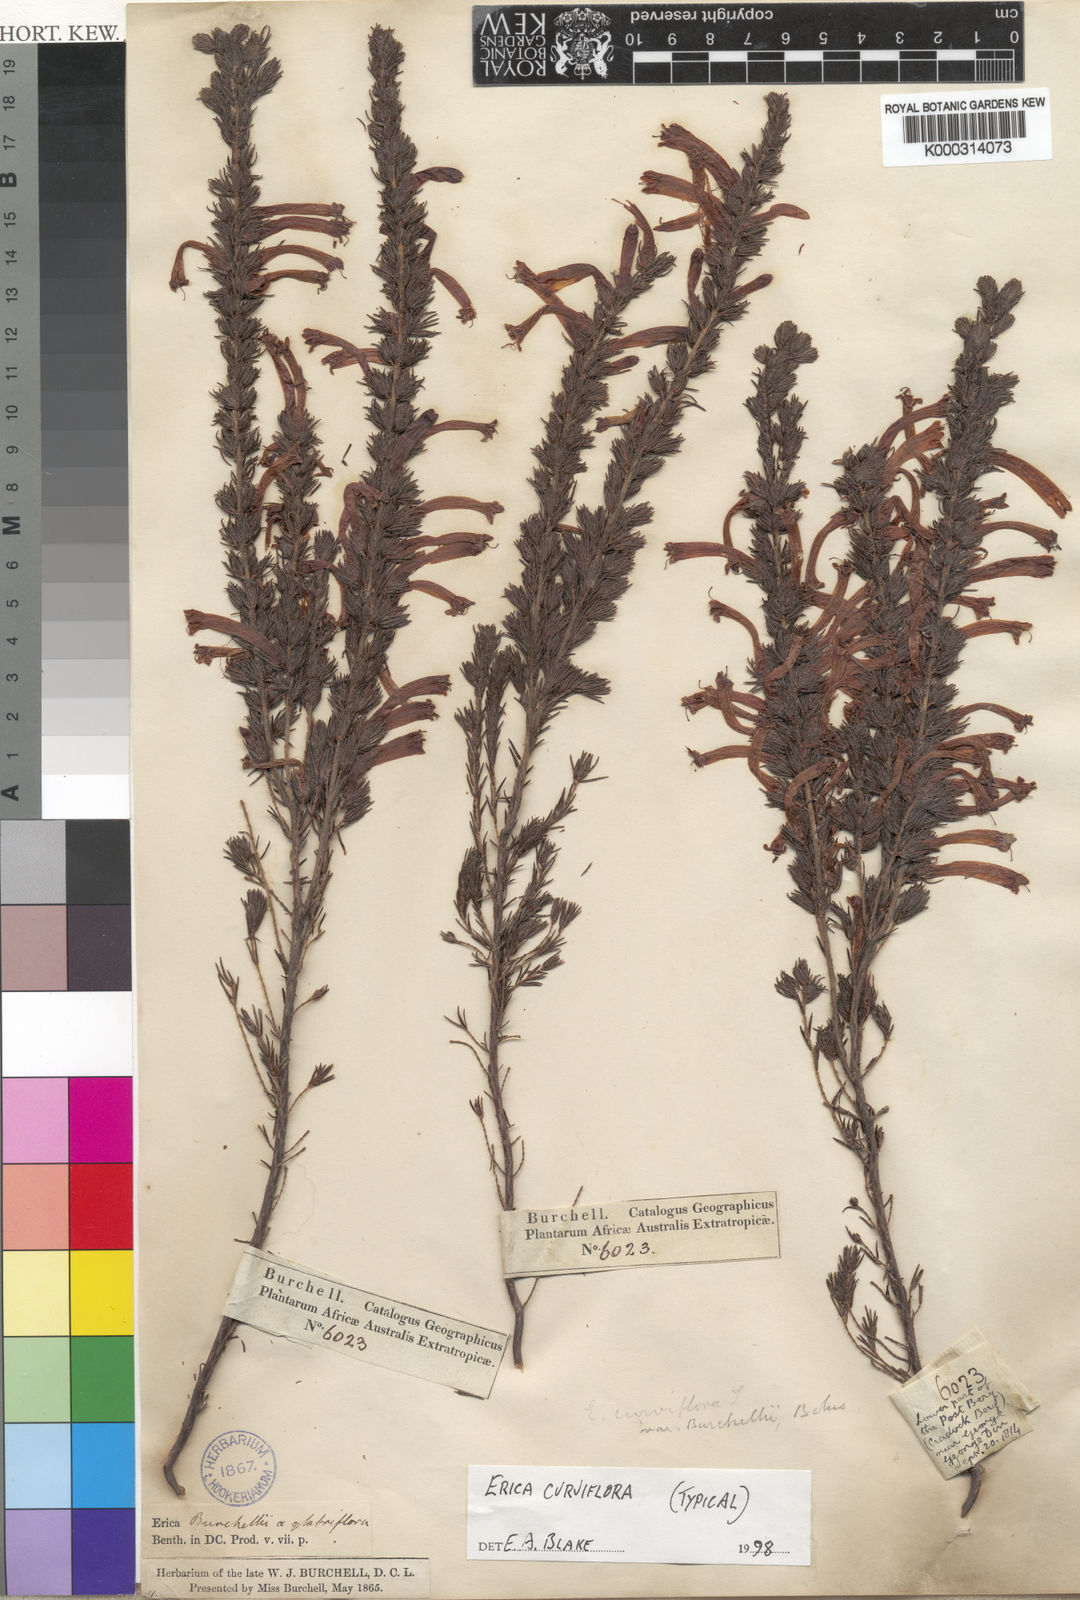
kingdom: Plantae
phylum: Tracheophyta
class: Magnoliopsida
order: Ericales
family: Ericaceae
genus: Erica
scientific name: Erica curviflora
